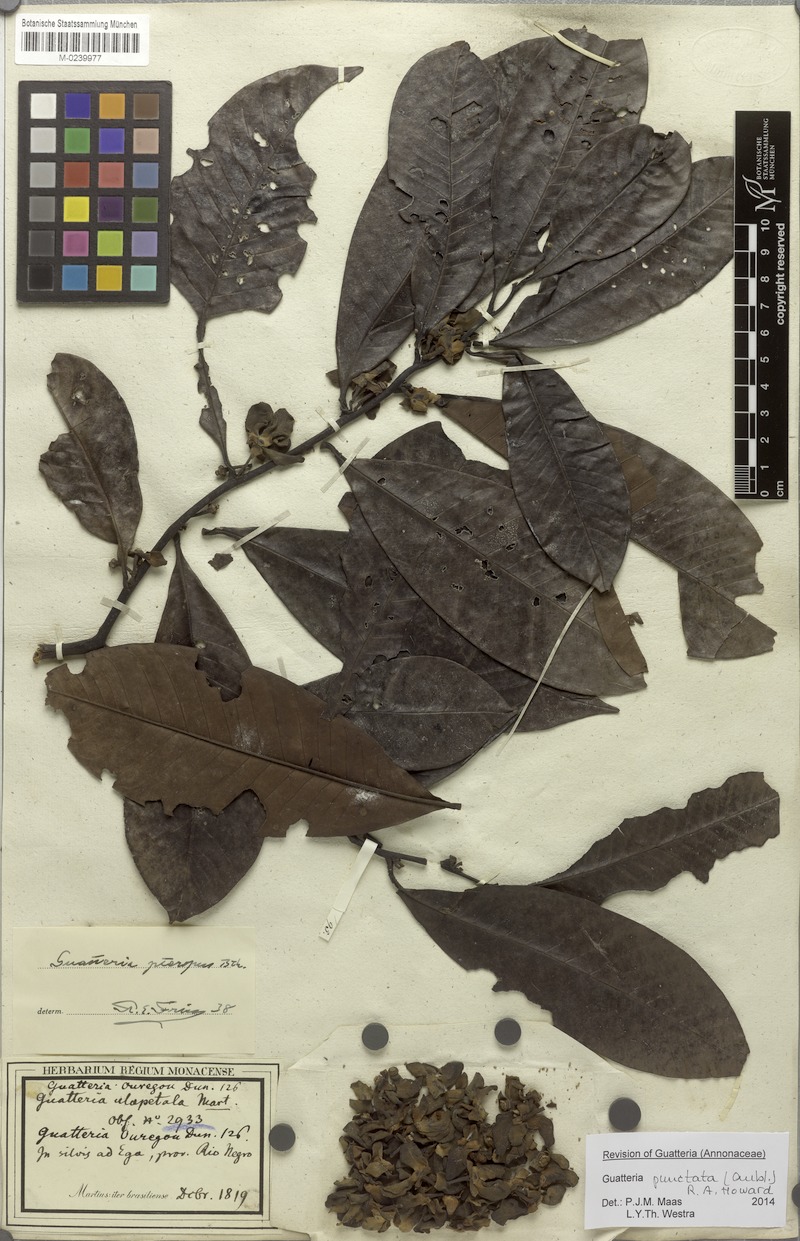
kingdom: Plantae
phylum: Tracheophyta
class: Magnoliopsida
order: Magnoliales
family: Annonaceae
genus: Guatteria
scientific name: Guatteria punctata
